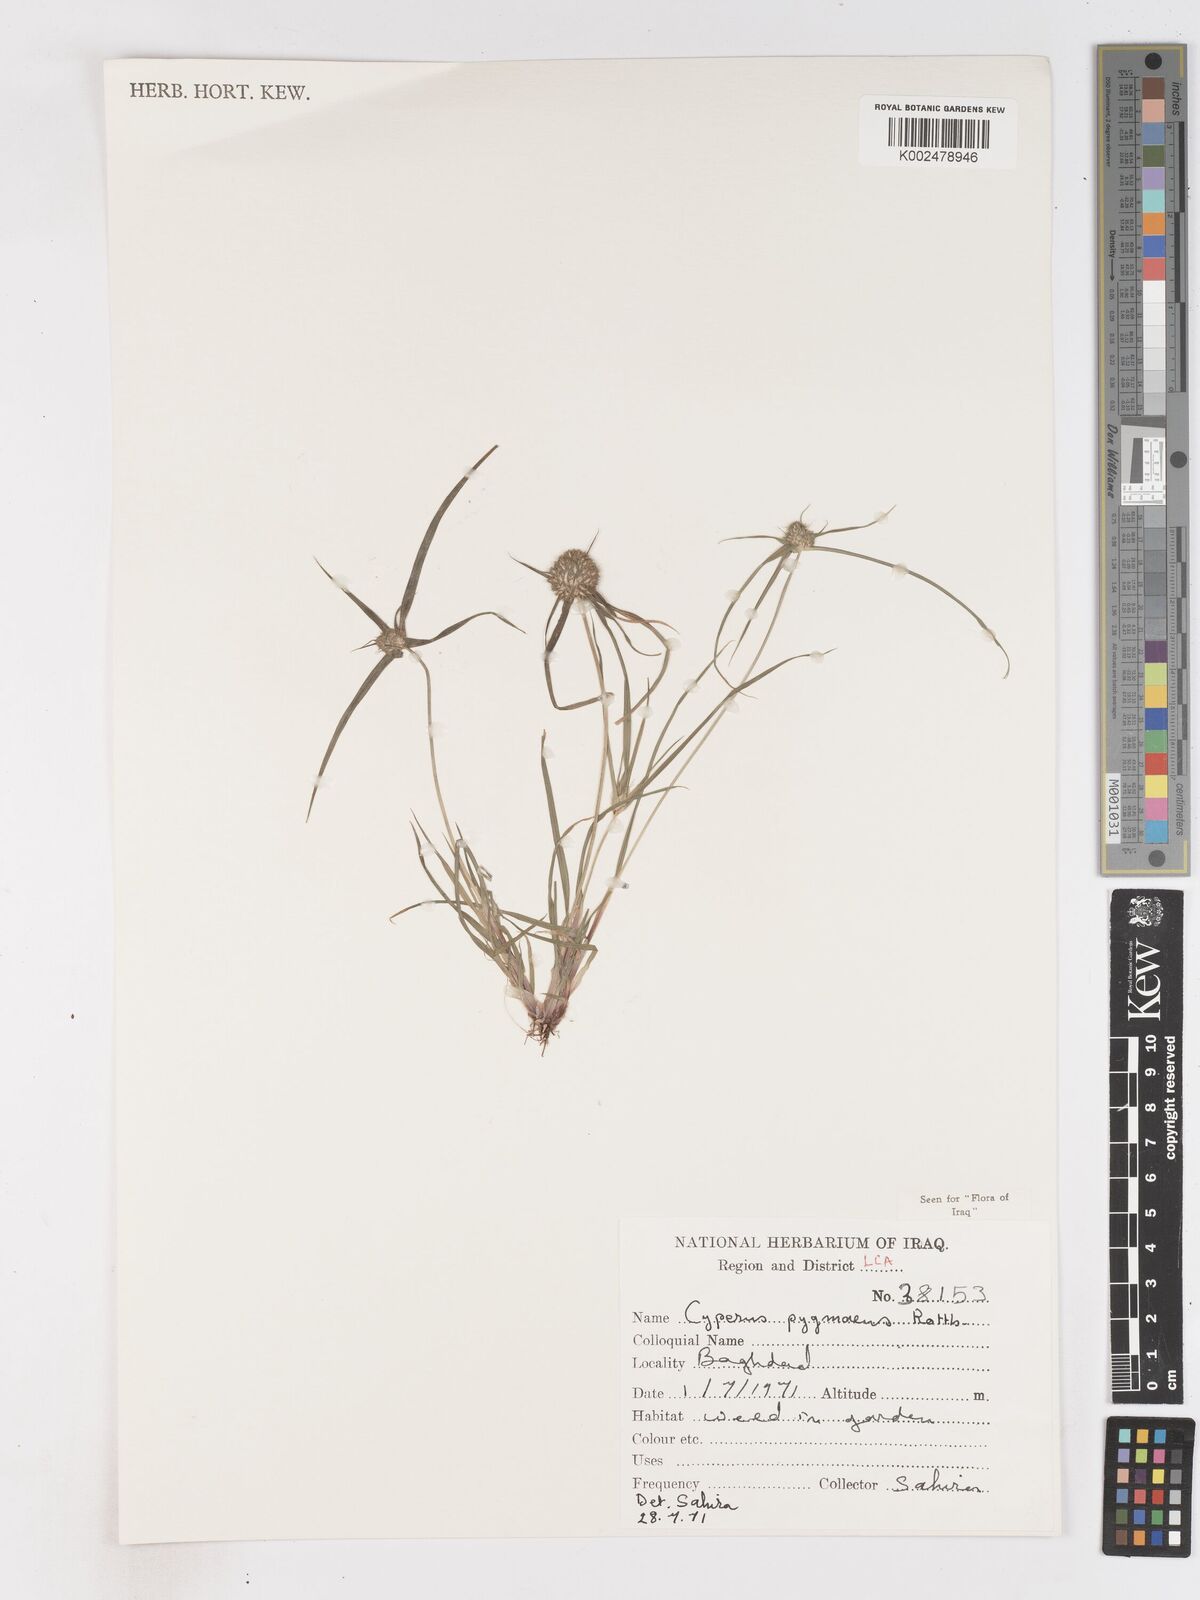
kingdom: Plantae
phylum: Tracheophyta
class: Liliopsida
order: Poales
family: Cyperaceae
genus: Cyperus
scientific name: Cyperus michelianus
